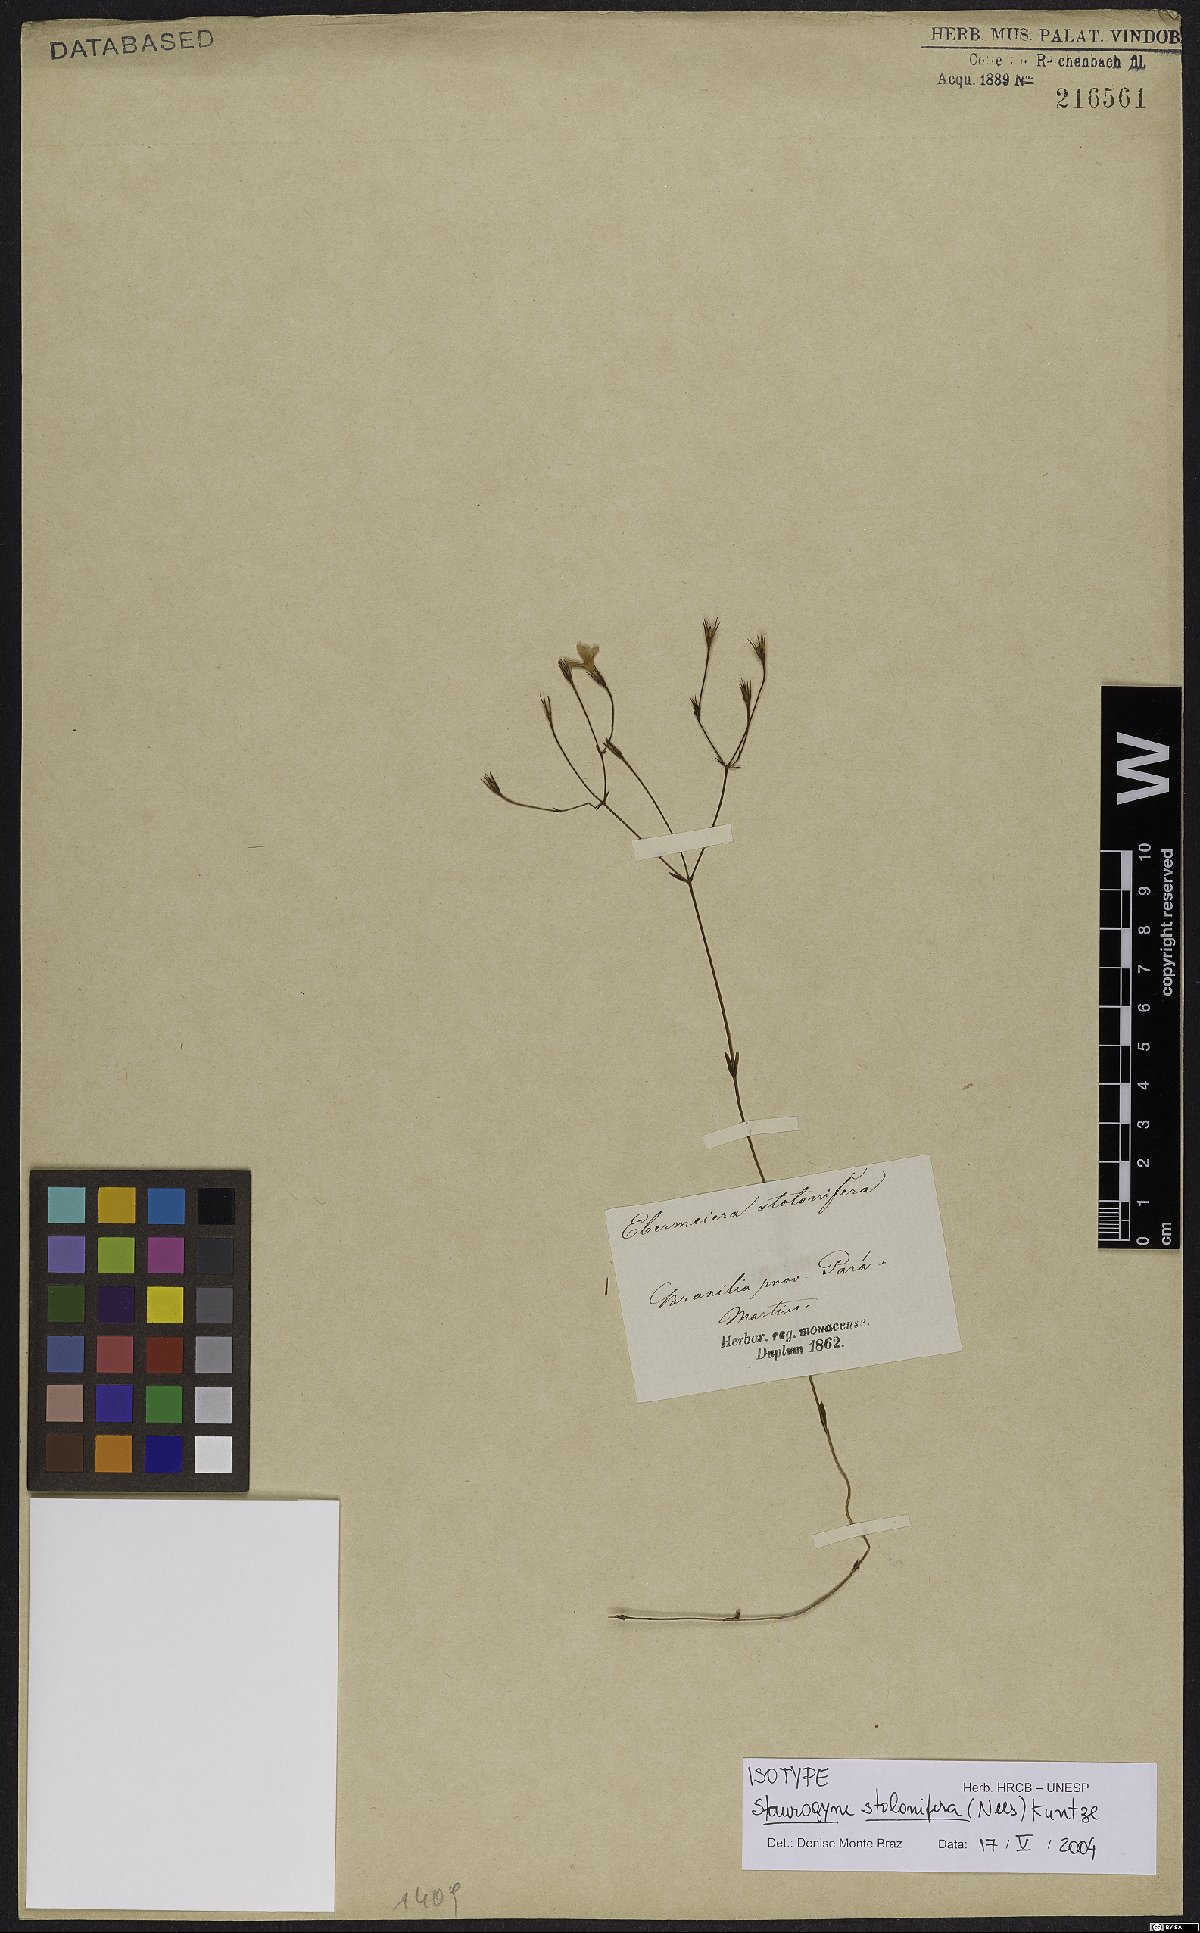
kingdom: Plantae
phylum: Tracheophyta
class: Magnoliopsida
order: Lamiales
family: Acanthaceae
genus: Staurogyne
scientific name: Staurogyne stolonifera
